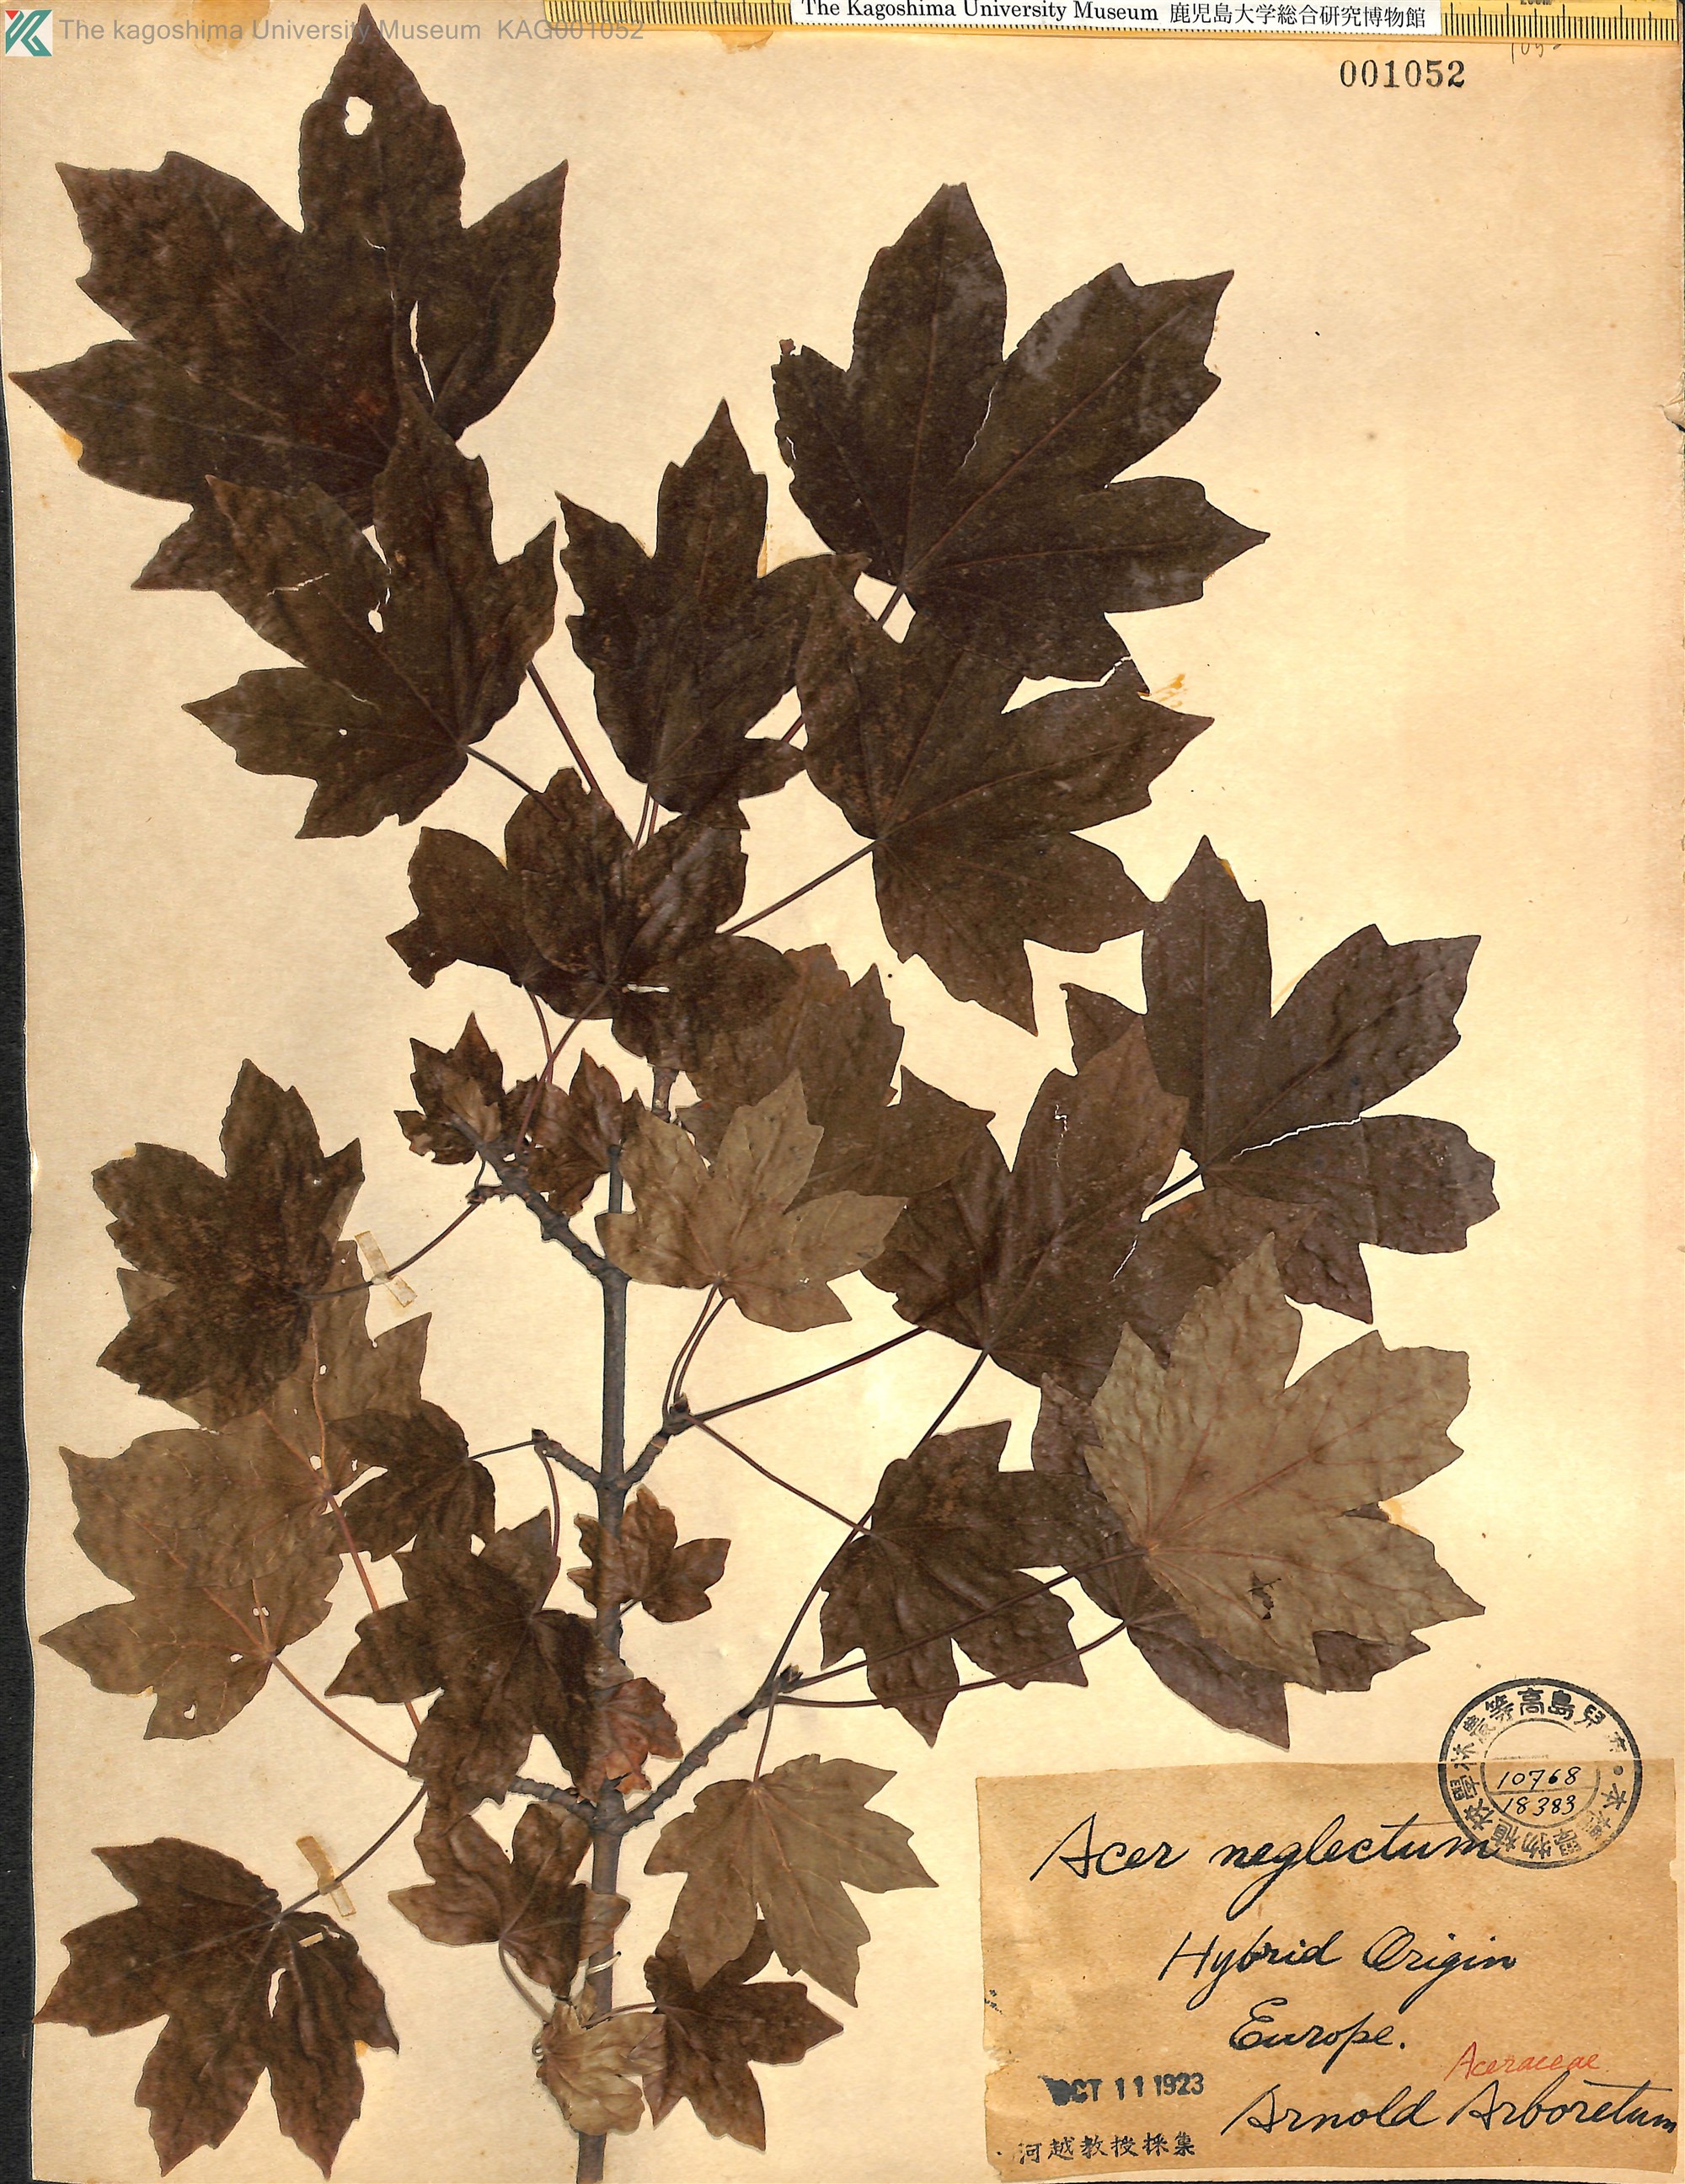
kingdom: Plantae
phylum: Tracheophyta
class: Magnoliopsida
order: Sapindales
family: Sapindaceae
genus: Acer
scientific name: Acer zoeschense
